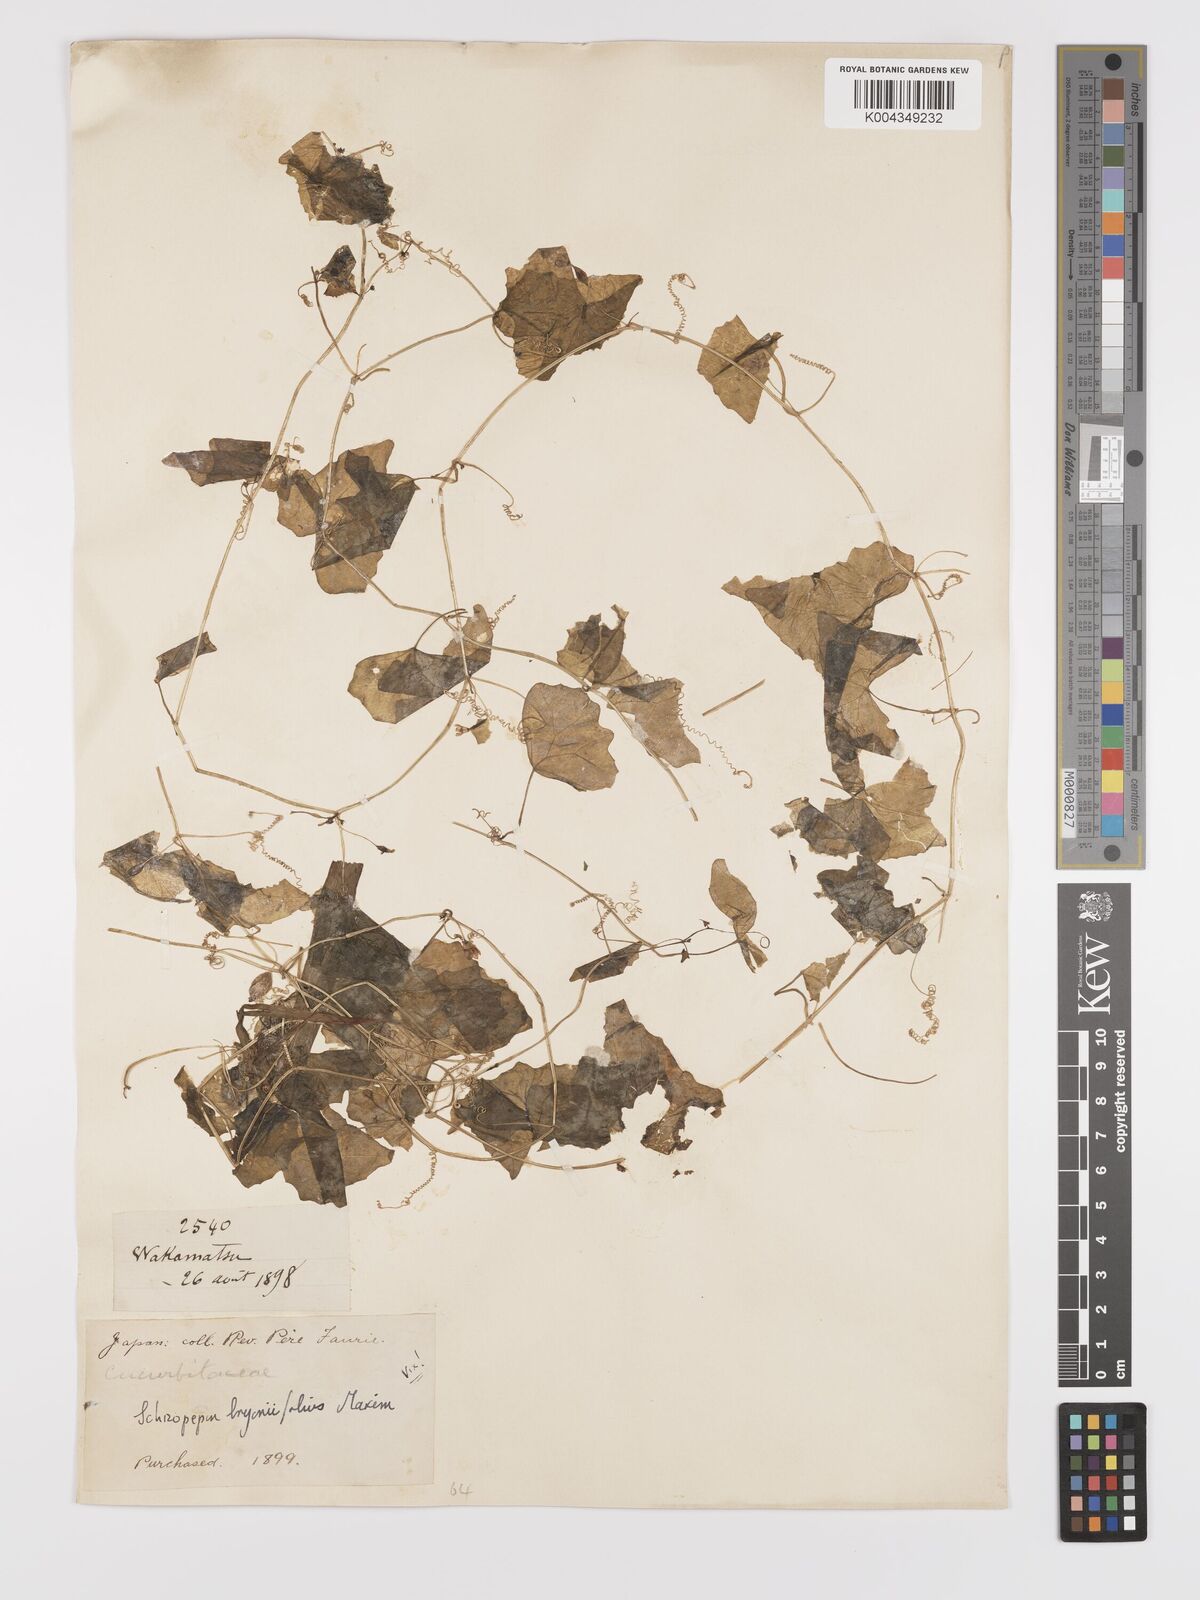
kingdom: Plantae
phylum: Tracheophyta
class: Magnoliopsida
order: Cucurbitales
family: Cucurbitaceae
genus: Zehneria
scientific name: Zehneria japonica
